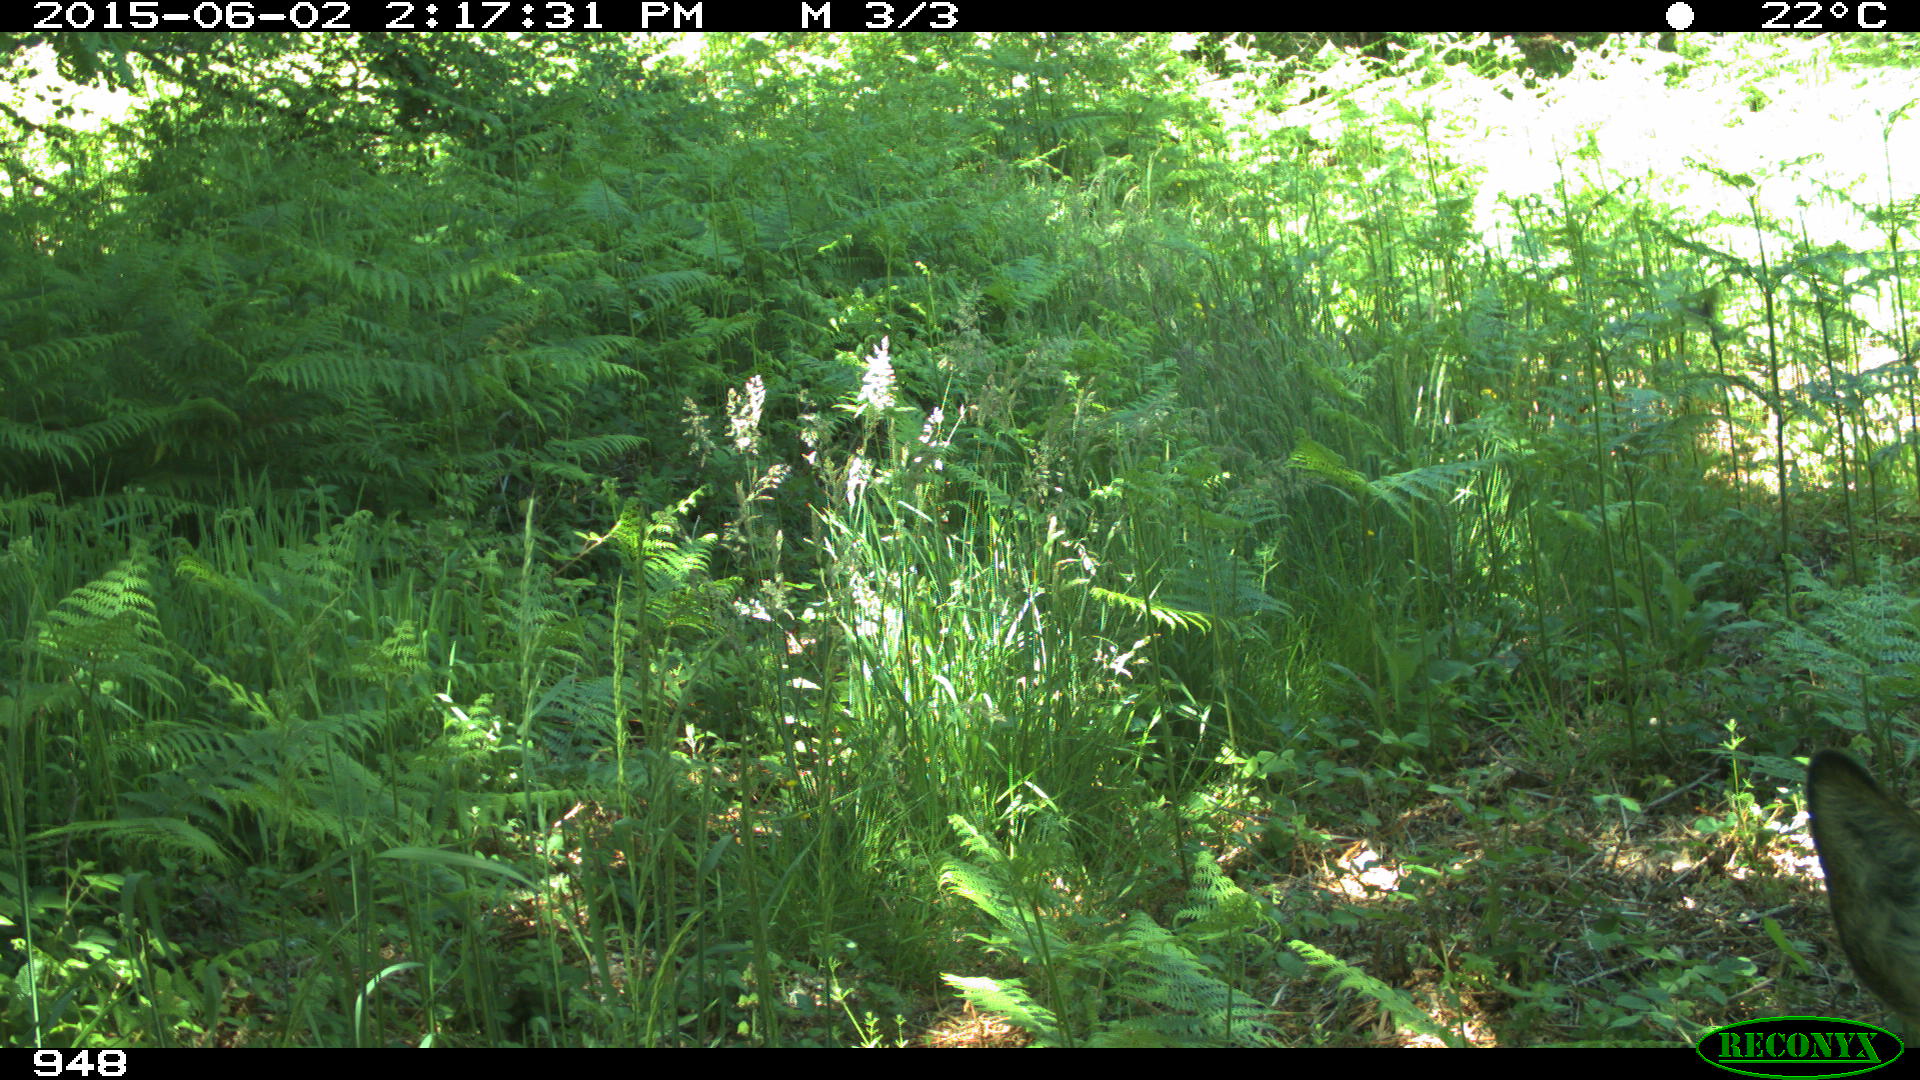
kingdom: Animalia
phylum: Chordata
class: Mammalia
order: Artiodactyla
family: Cervidae
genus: Capreolus
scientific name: Capreolus capreolus
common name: Western roe deer
